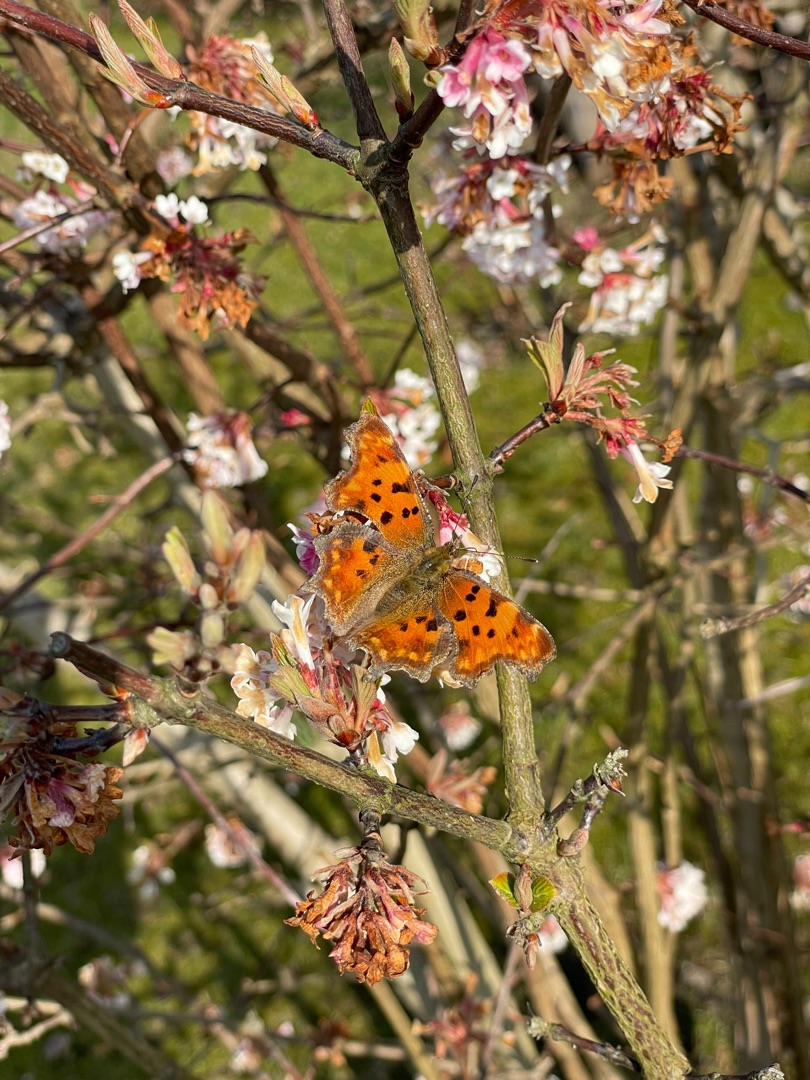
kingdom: Animalia
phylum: Arthropoda
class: Insecta
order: Lepidoptera
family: Nymphalidae
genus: Polygonia
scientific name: Polygonia c-album
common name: Det hvide C
